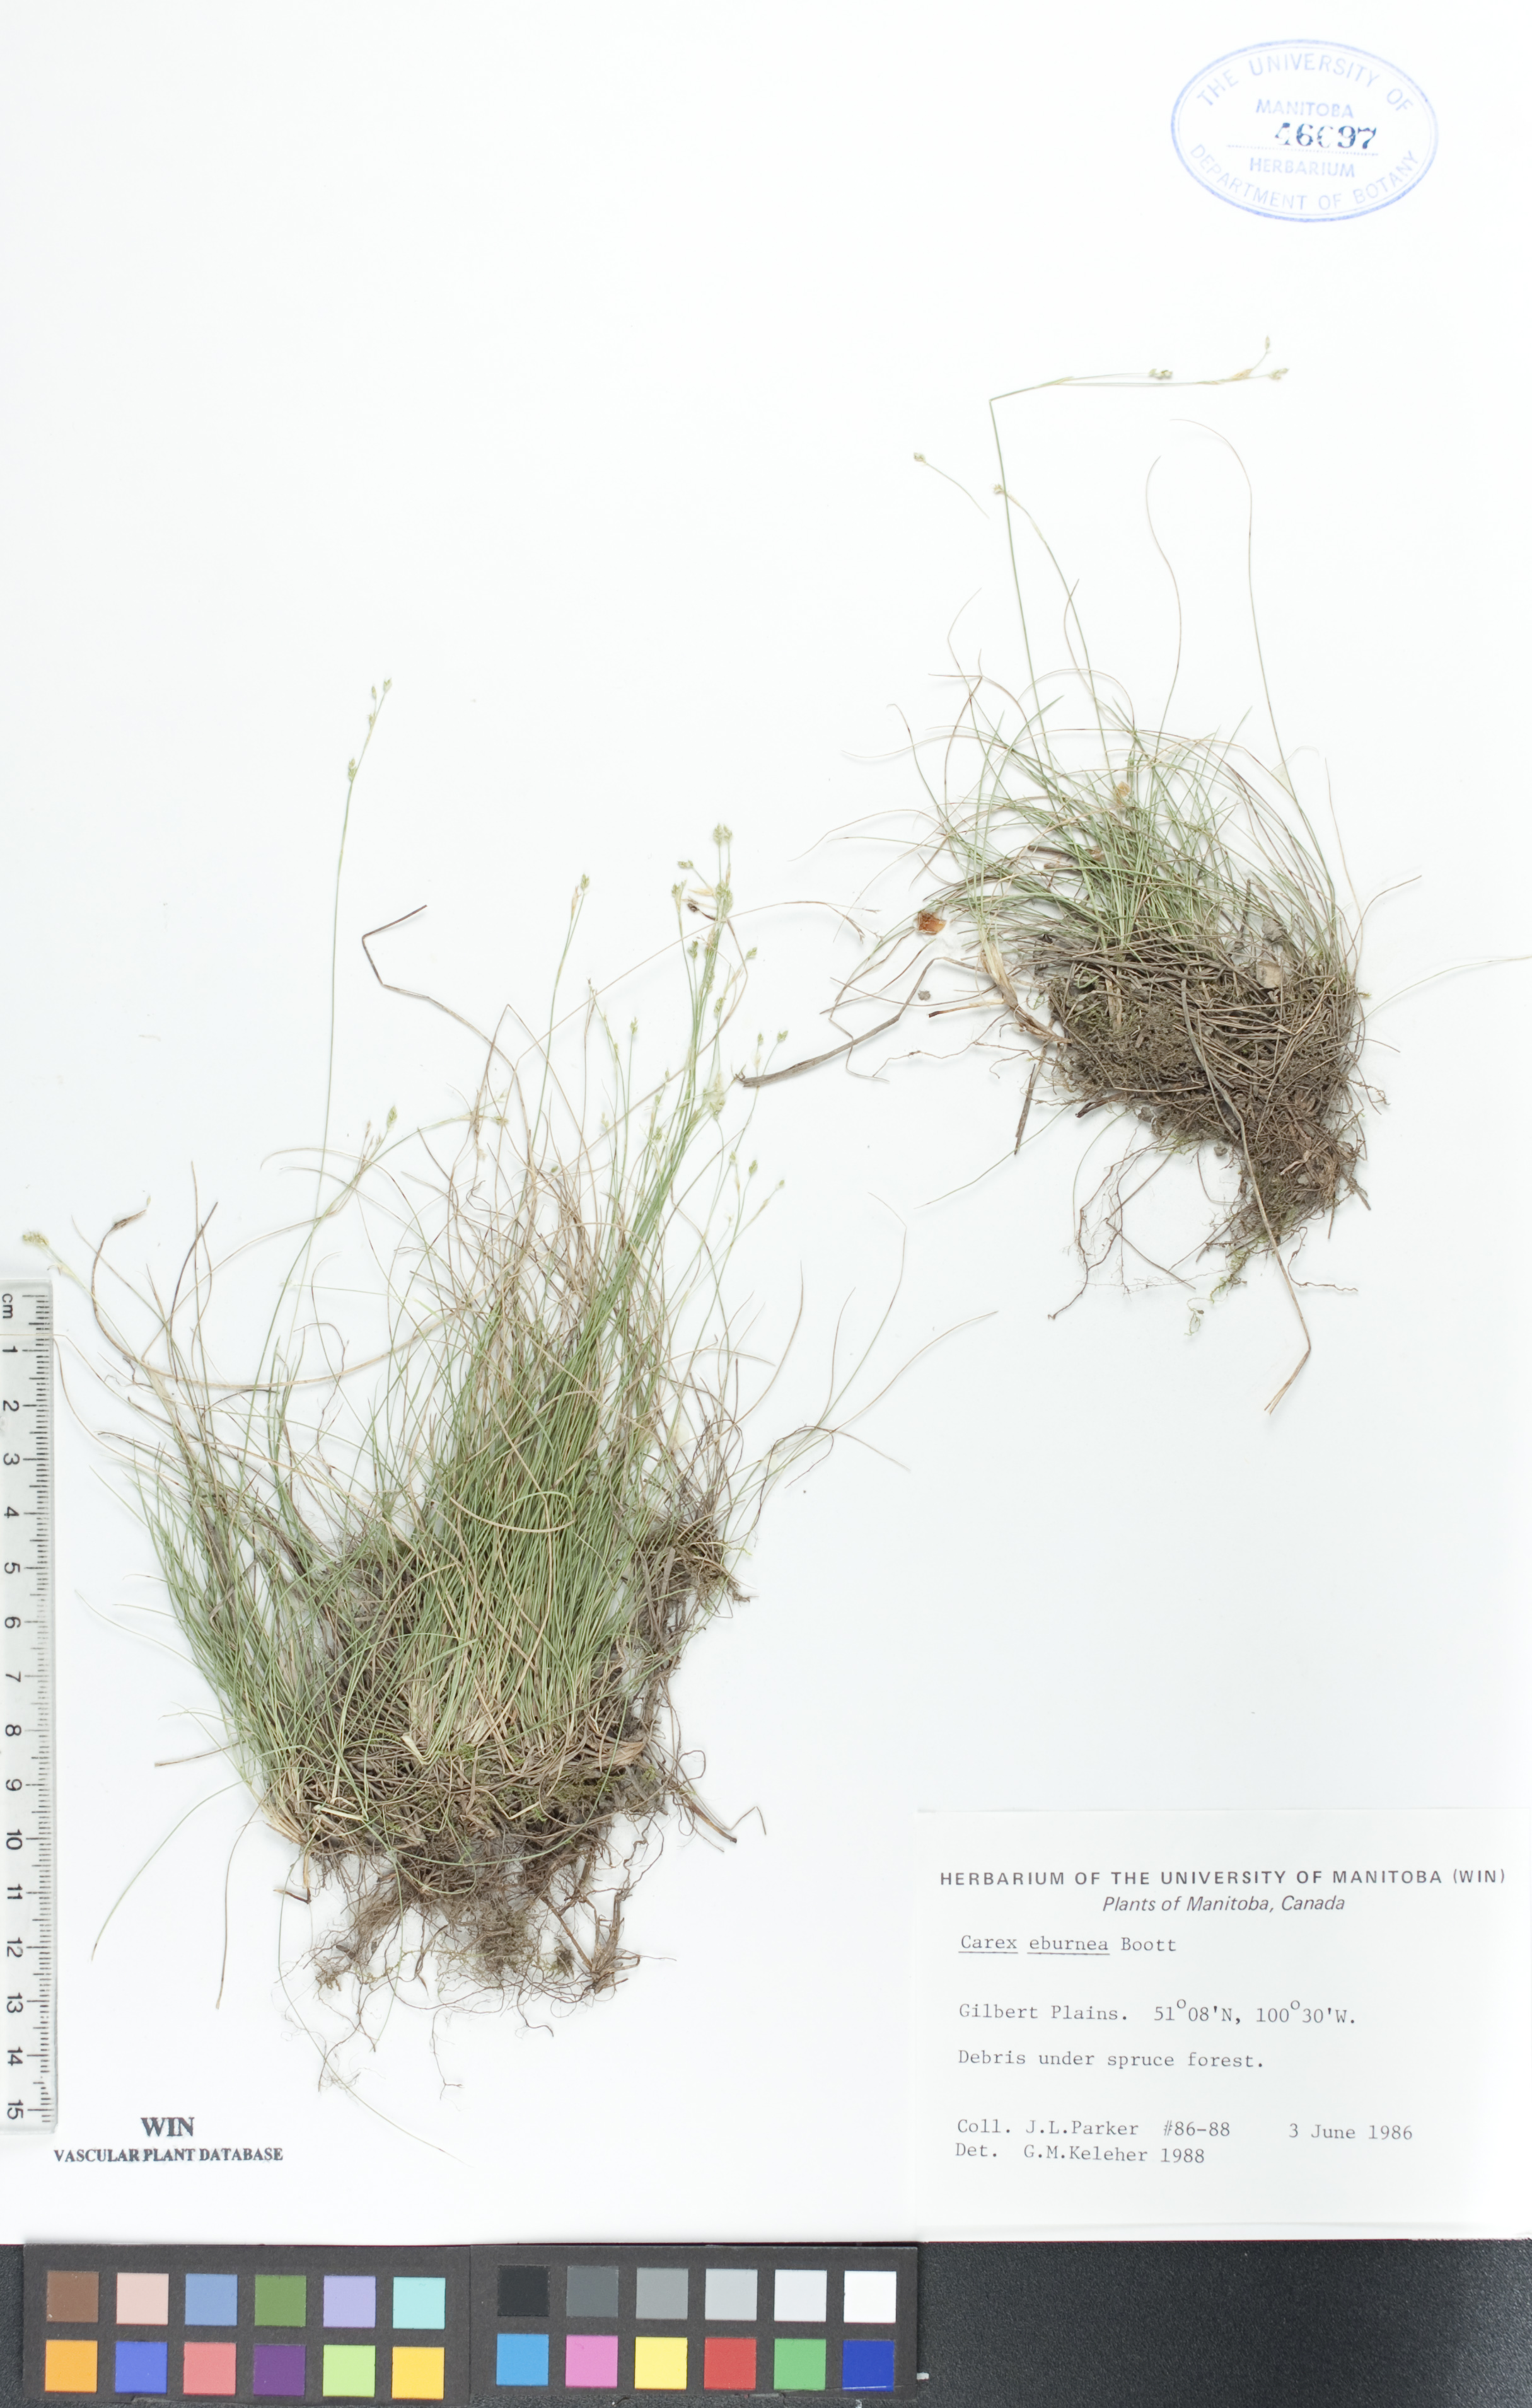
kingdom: Plantae
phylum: Tracheophyta
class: Liliopsida
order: Poales
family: Cyperaceae
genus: Carex
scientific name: Carex eburnea
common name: Bristle-leaved sedge
